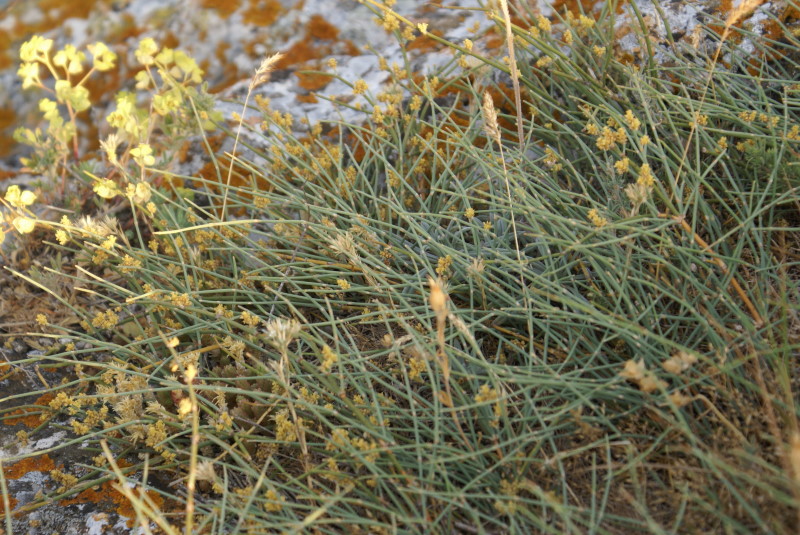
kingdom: Plantae
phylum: Tracheophyta
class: Gnetopsida
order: Ephedrales
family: Ephedraceae
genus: Ephedra
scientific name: Ephedra distachya
